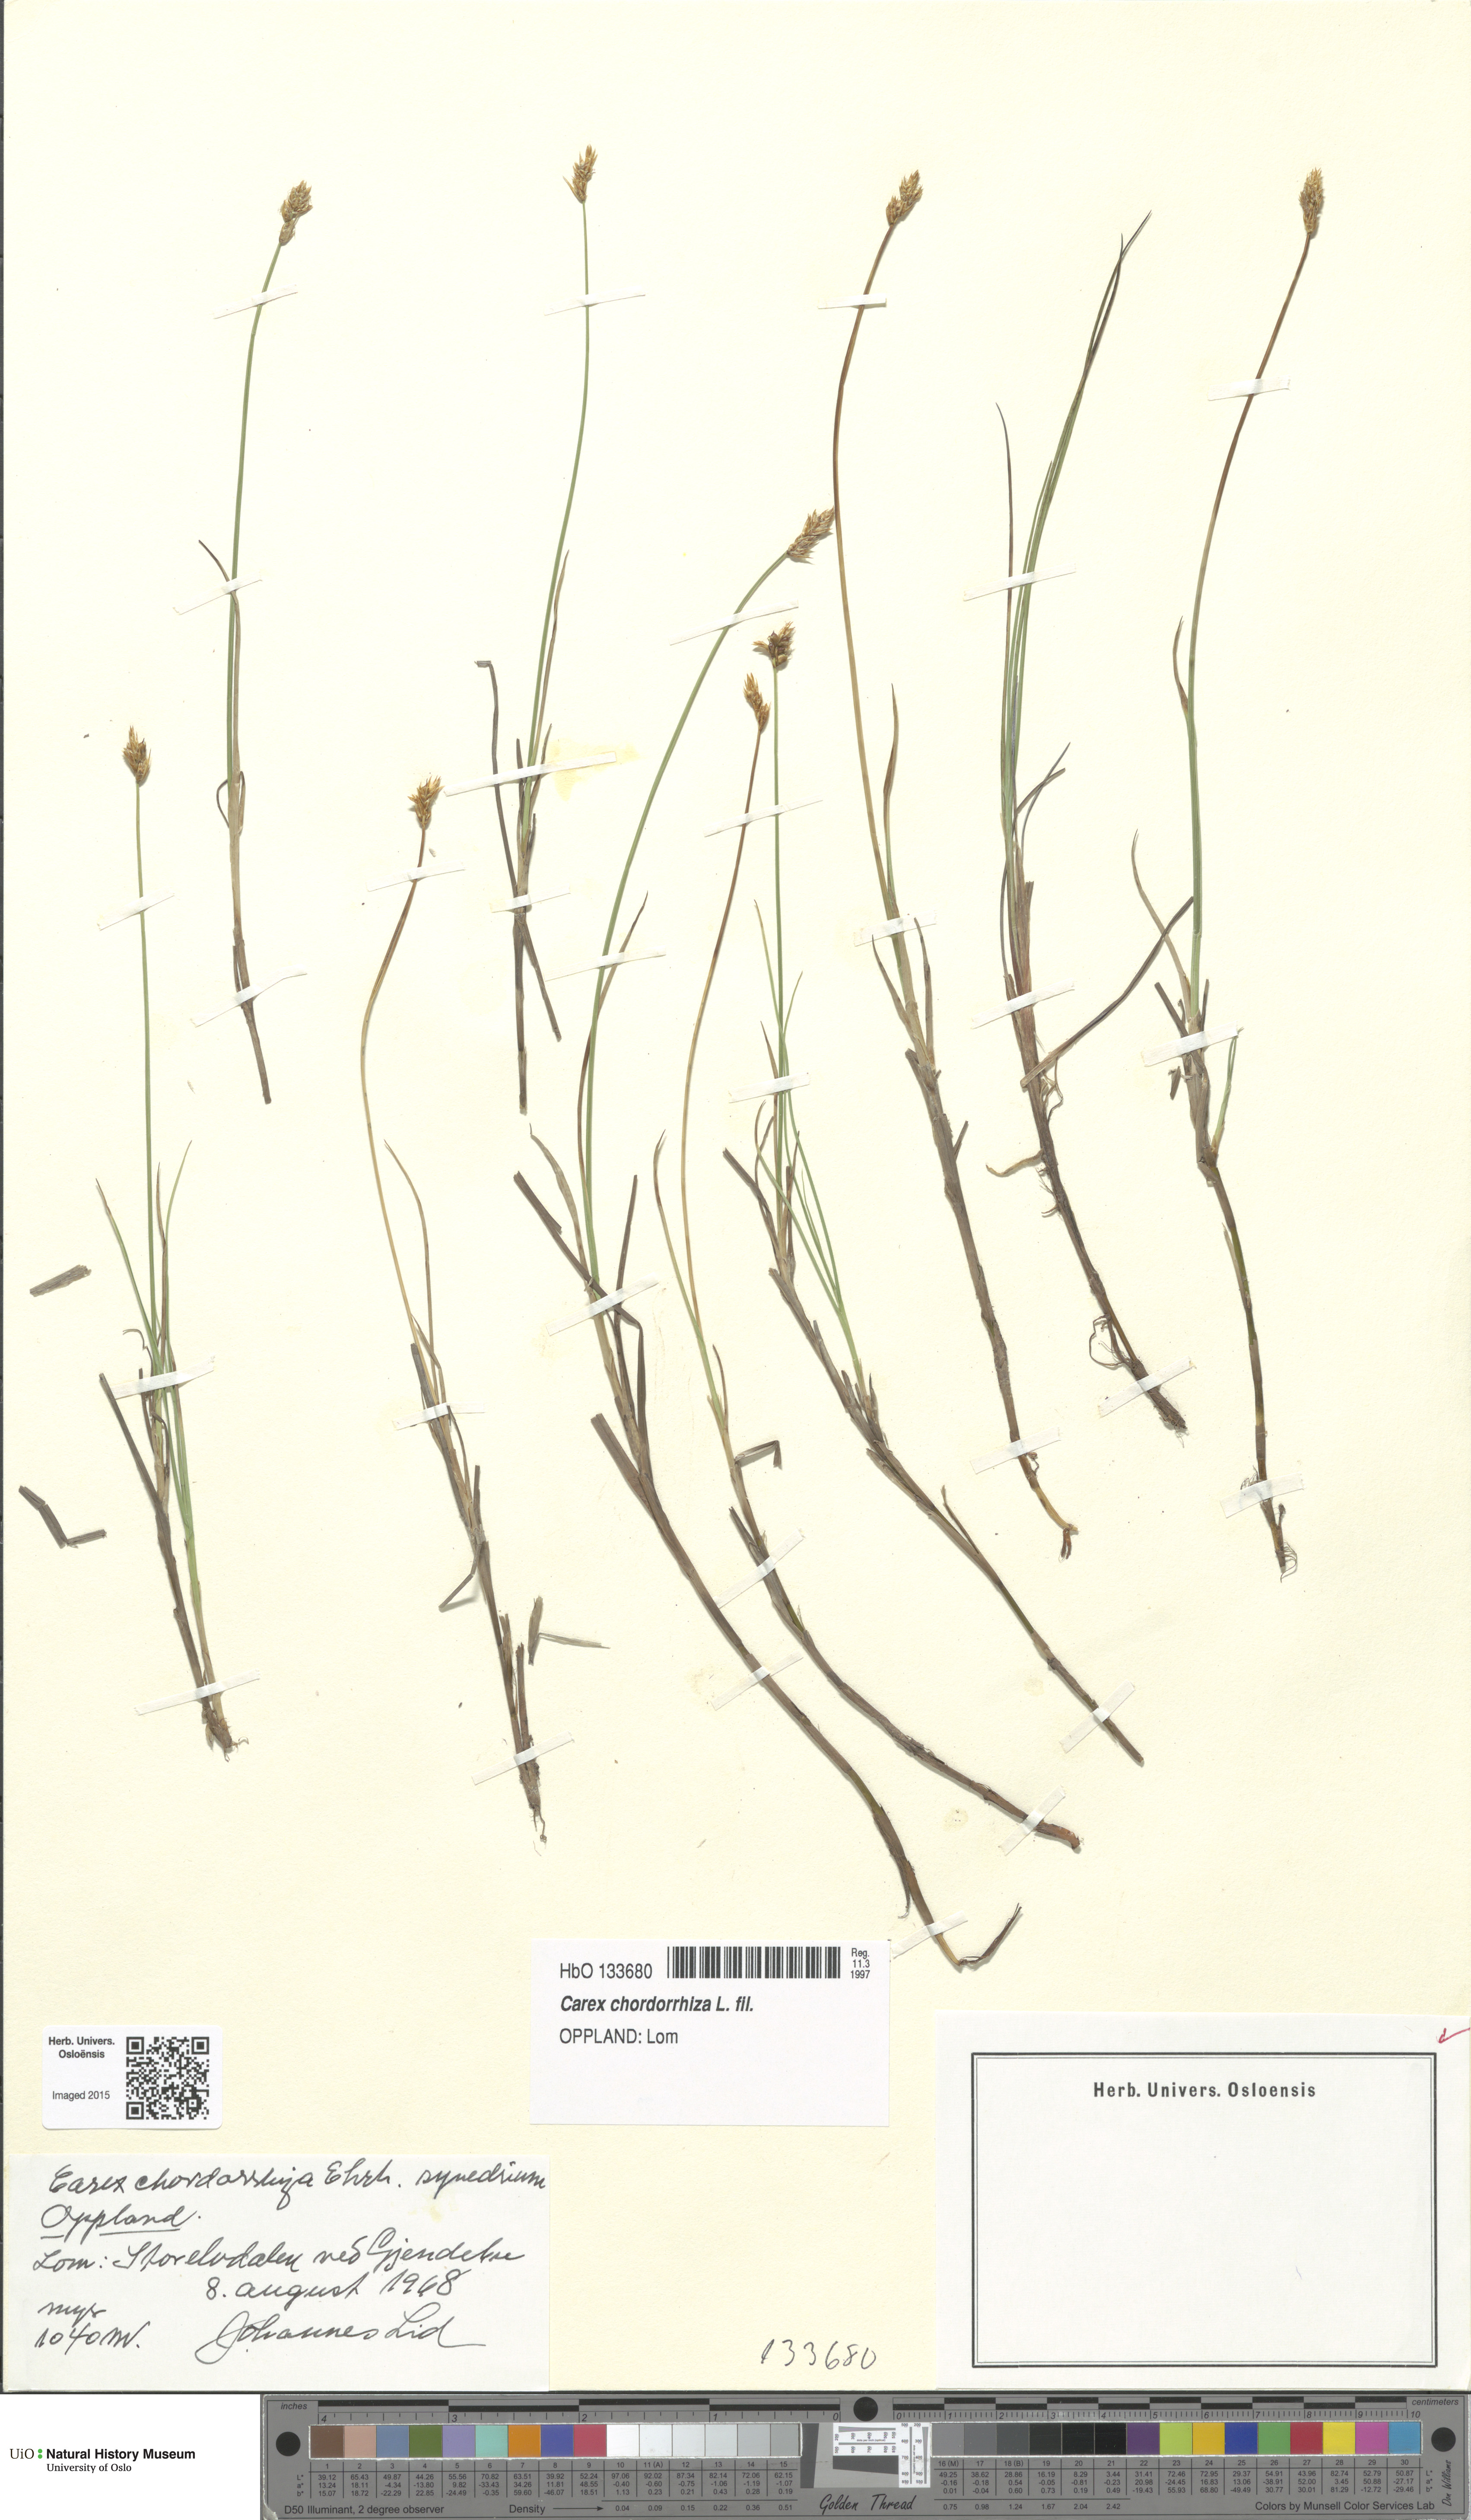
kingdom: Plantae
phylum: Tracheophyta
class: Liliopsida
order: Poales
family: Cyperaceae
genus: Carex
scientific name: Carex chordorrhiza
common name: String sedge
